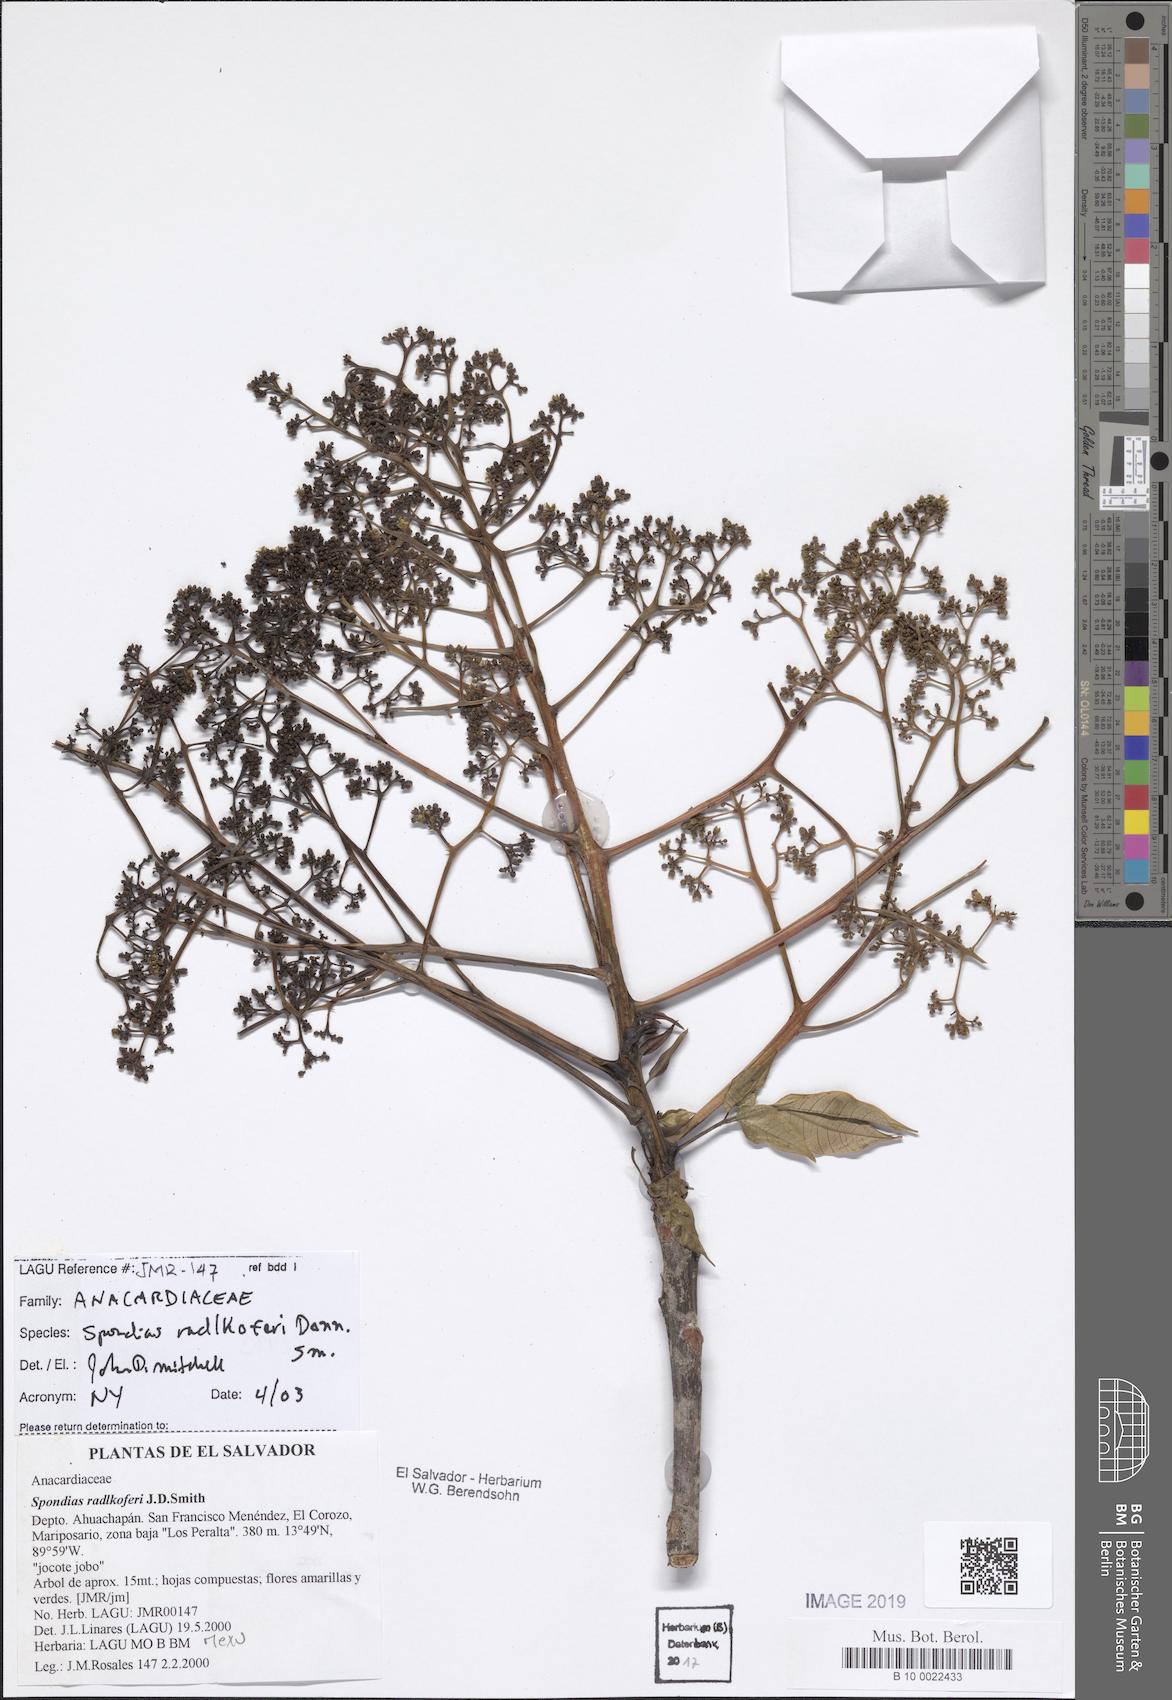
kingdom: Plantae
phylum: Tracheophyta
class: Magnoliopsida
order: Sapindales
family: Anacardiaceae
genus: Spondias
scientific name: Spondias radlkoferi
